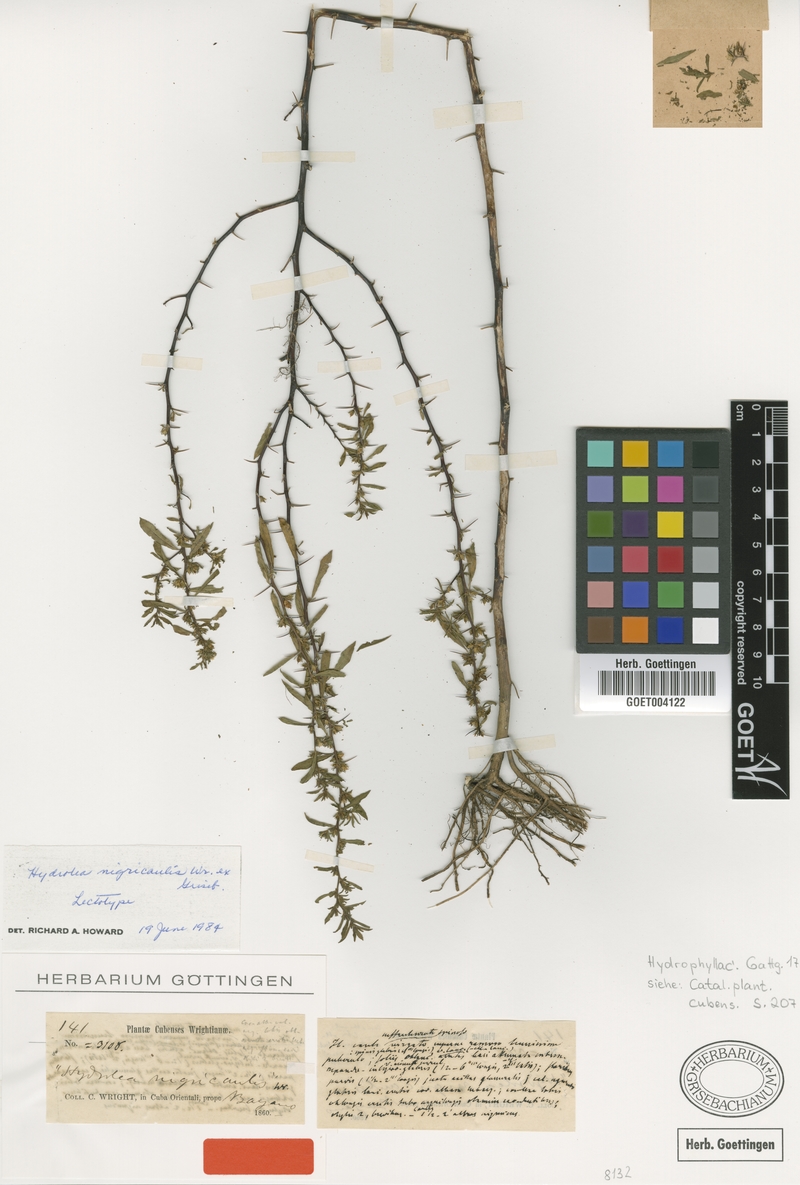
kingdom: Plantae
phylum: Tracheophyta
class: Magnoliopsida
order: Boraginales
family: Namaceae
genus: Nama
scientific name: Nama cubana
